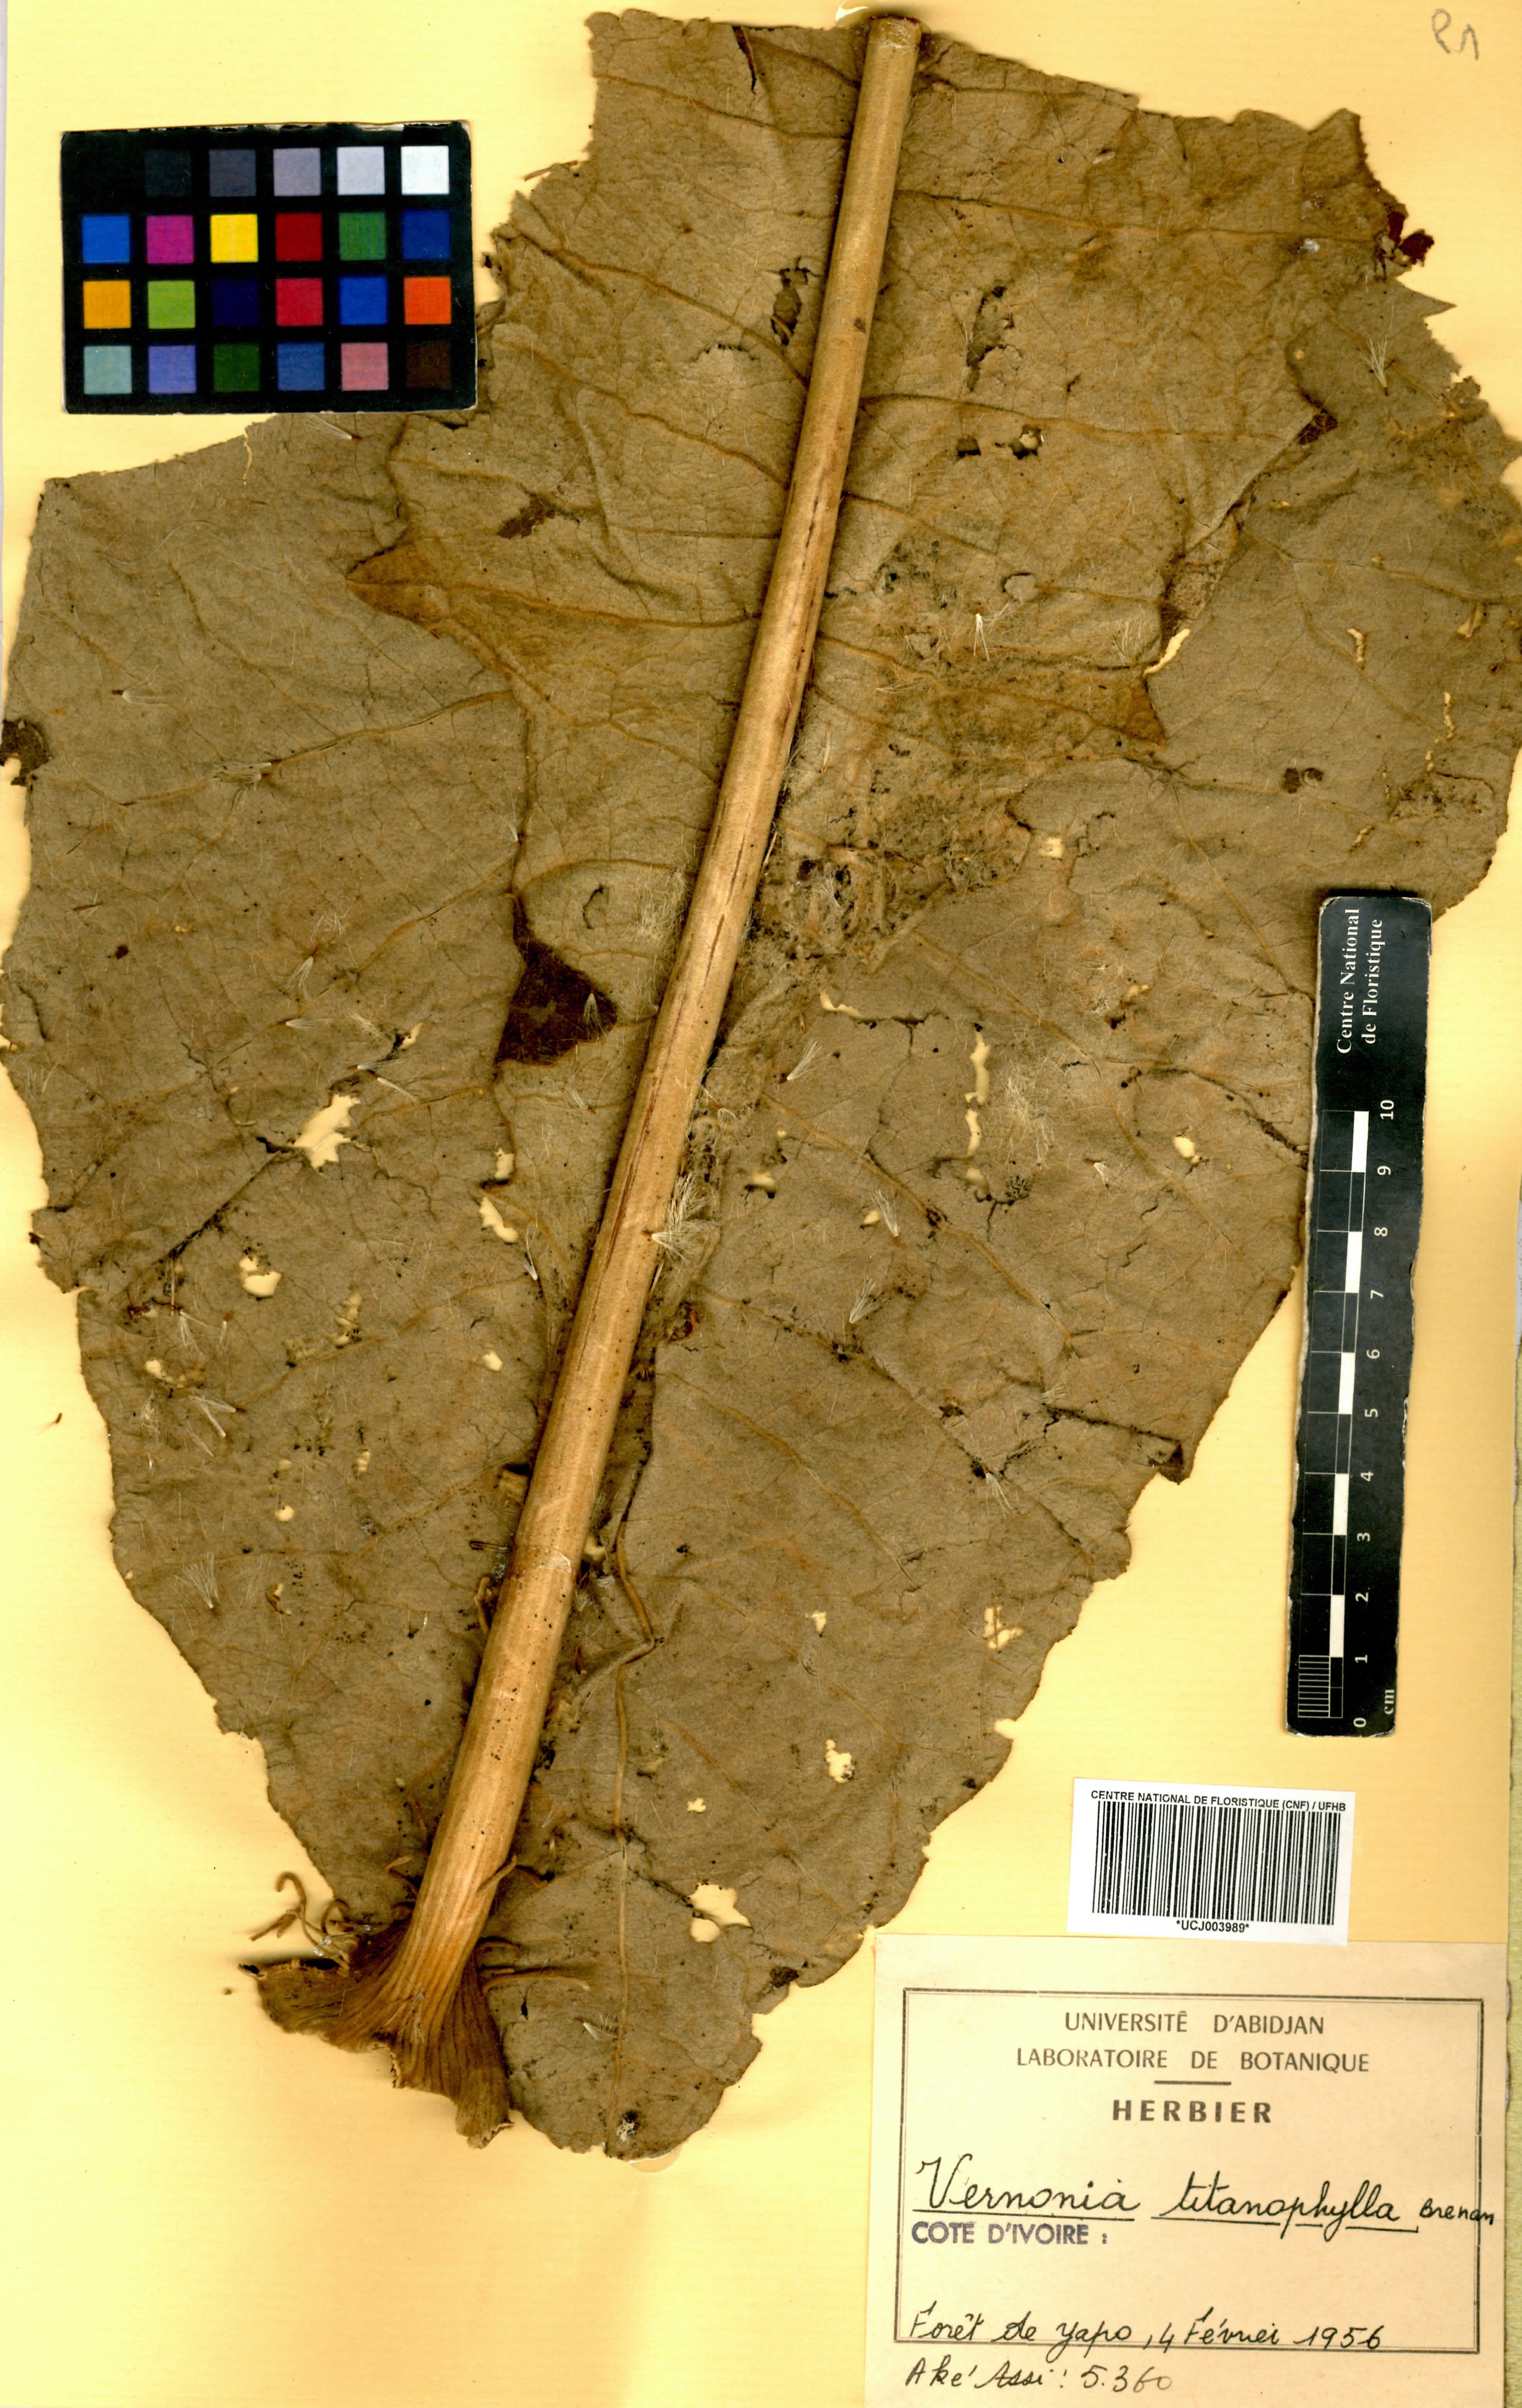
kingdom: Plantae
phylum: Tracheophyta
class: Magnoliopsida
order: Asterales
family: Asteraceae
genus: Brenandendron
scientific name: Brenandendron titanophyllum
